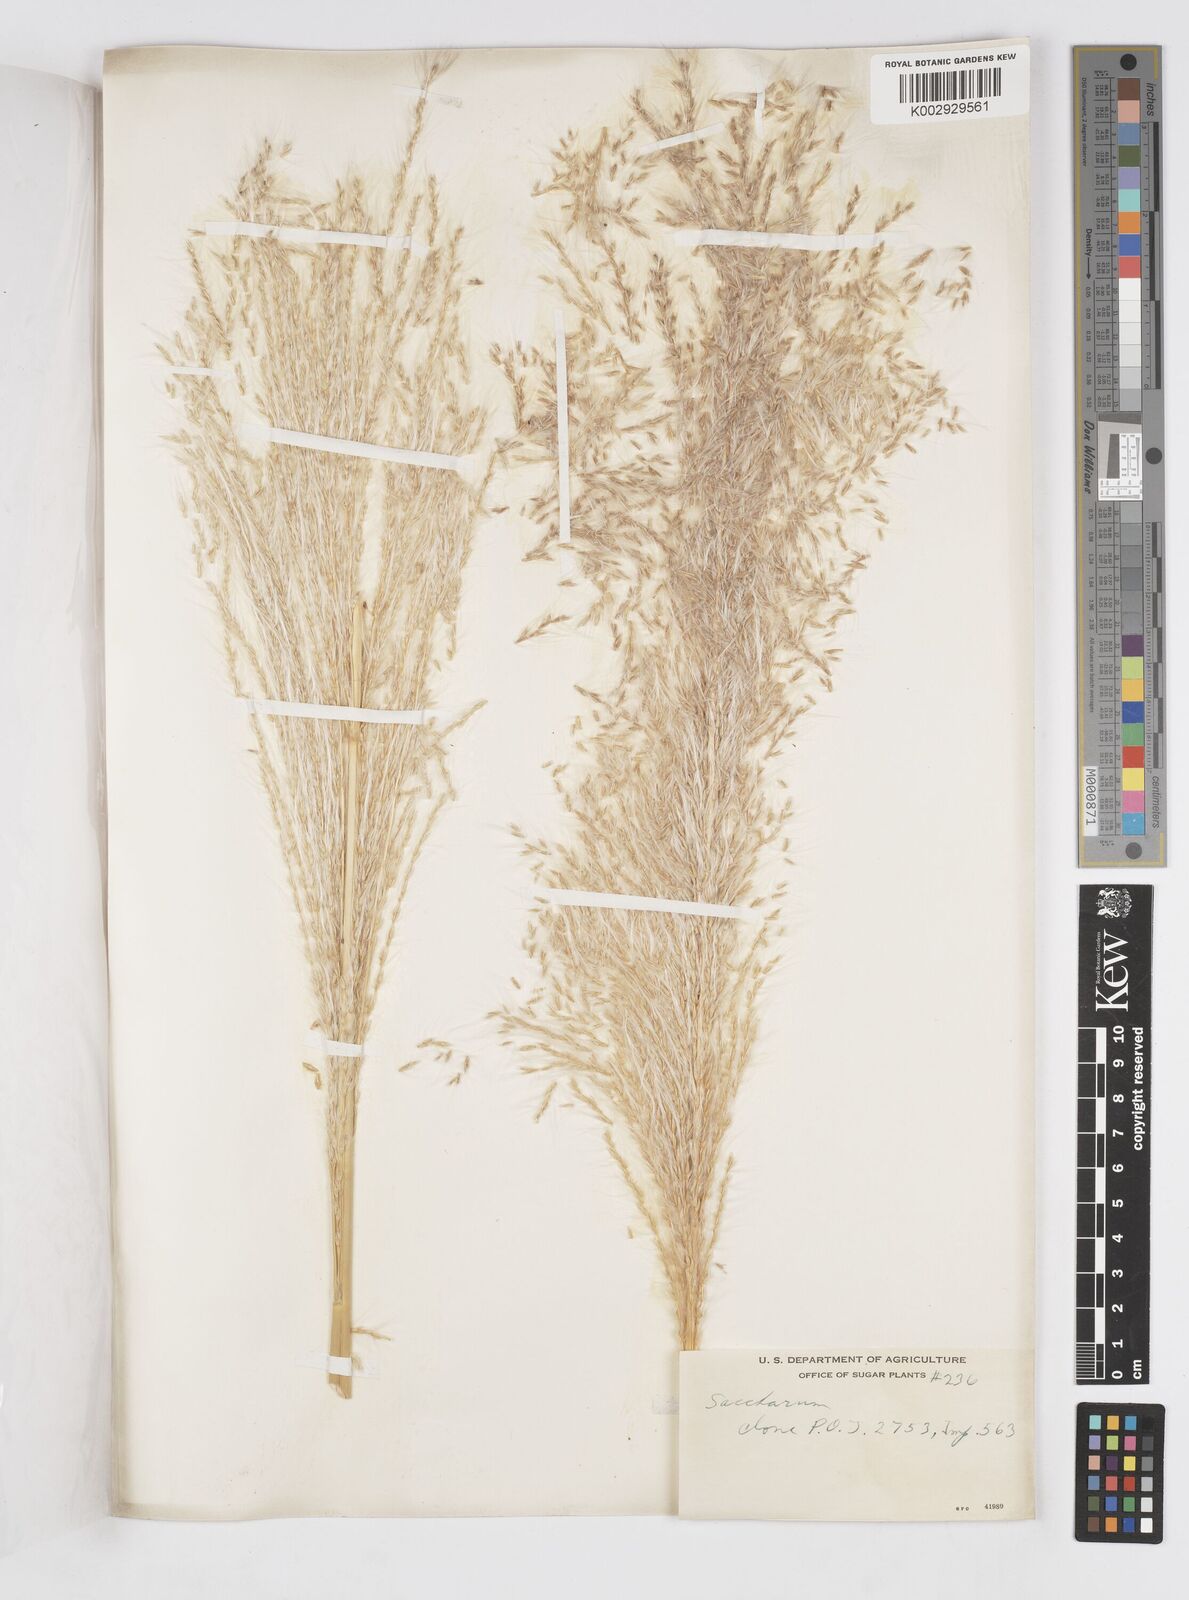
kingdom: Plantae
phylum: Tracheophyta
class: Liliopsida
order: Poales
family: Poaceae
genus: Saccharum
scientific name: Saccharum officinarum
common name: Sugarcane
